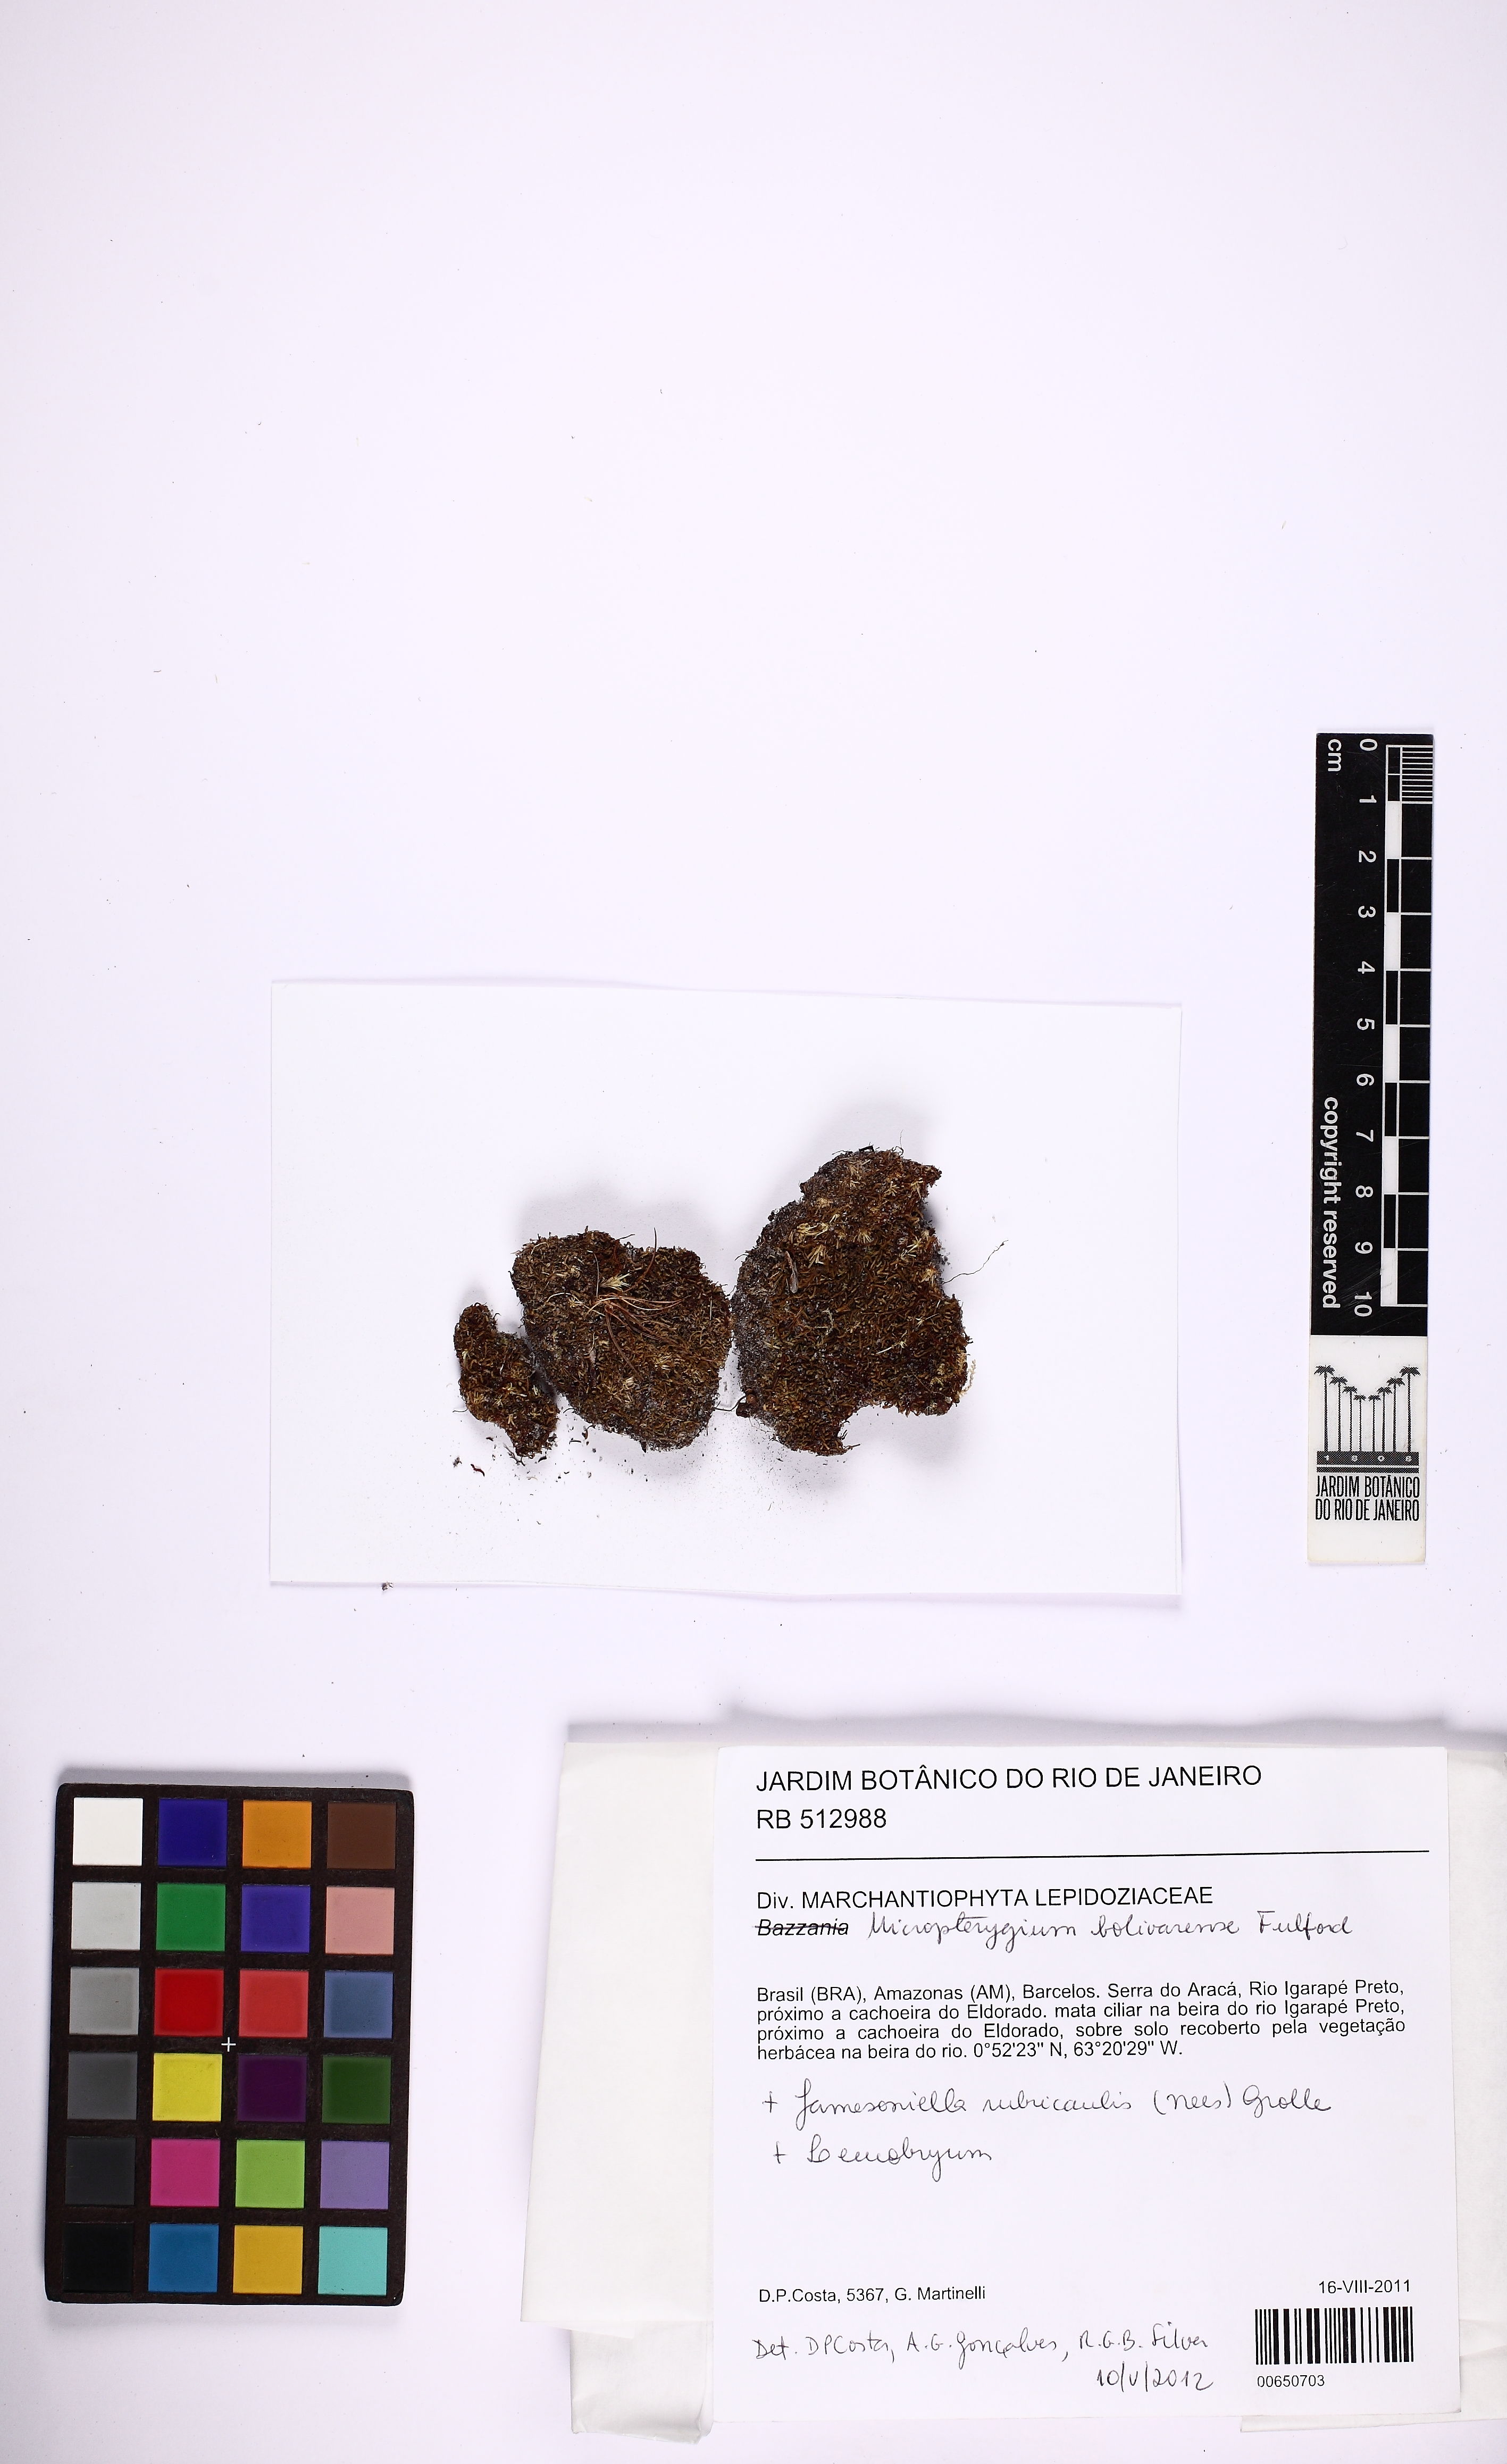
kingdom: Plantae
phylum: Marchantiophyta
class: Jungermanniopsida
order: Jungermanniales
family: Lepidoziaceae
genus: Micropterygium
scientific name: Micropterygium bolivarense
